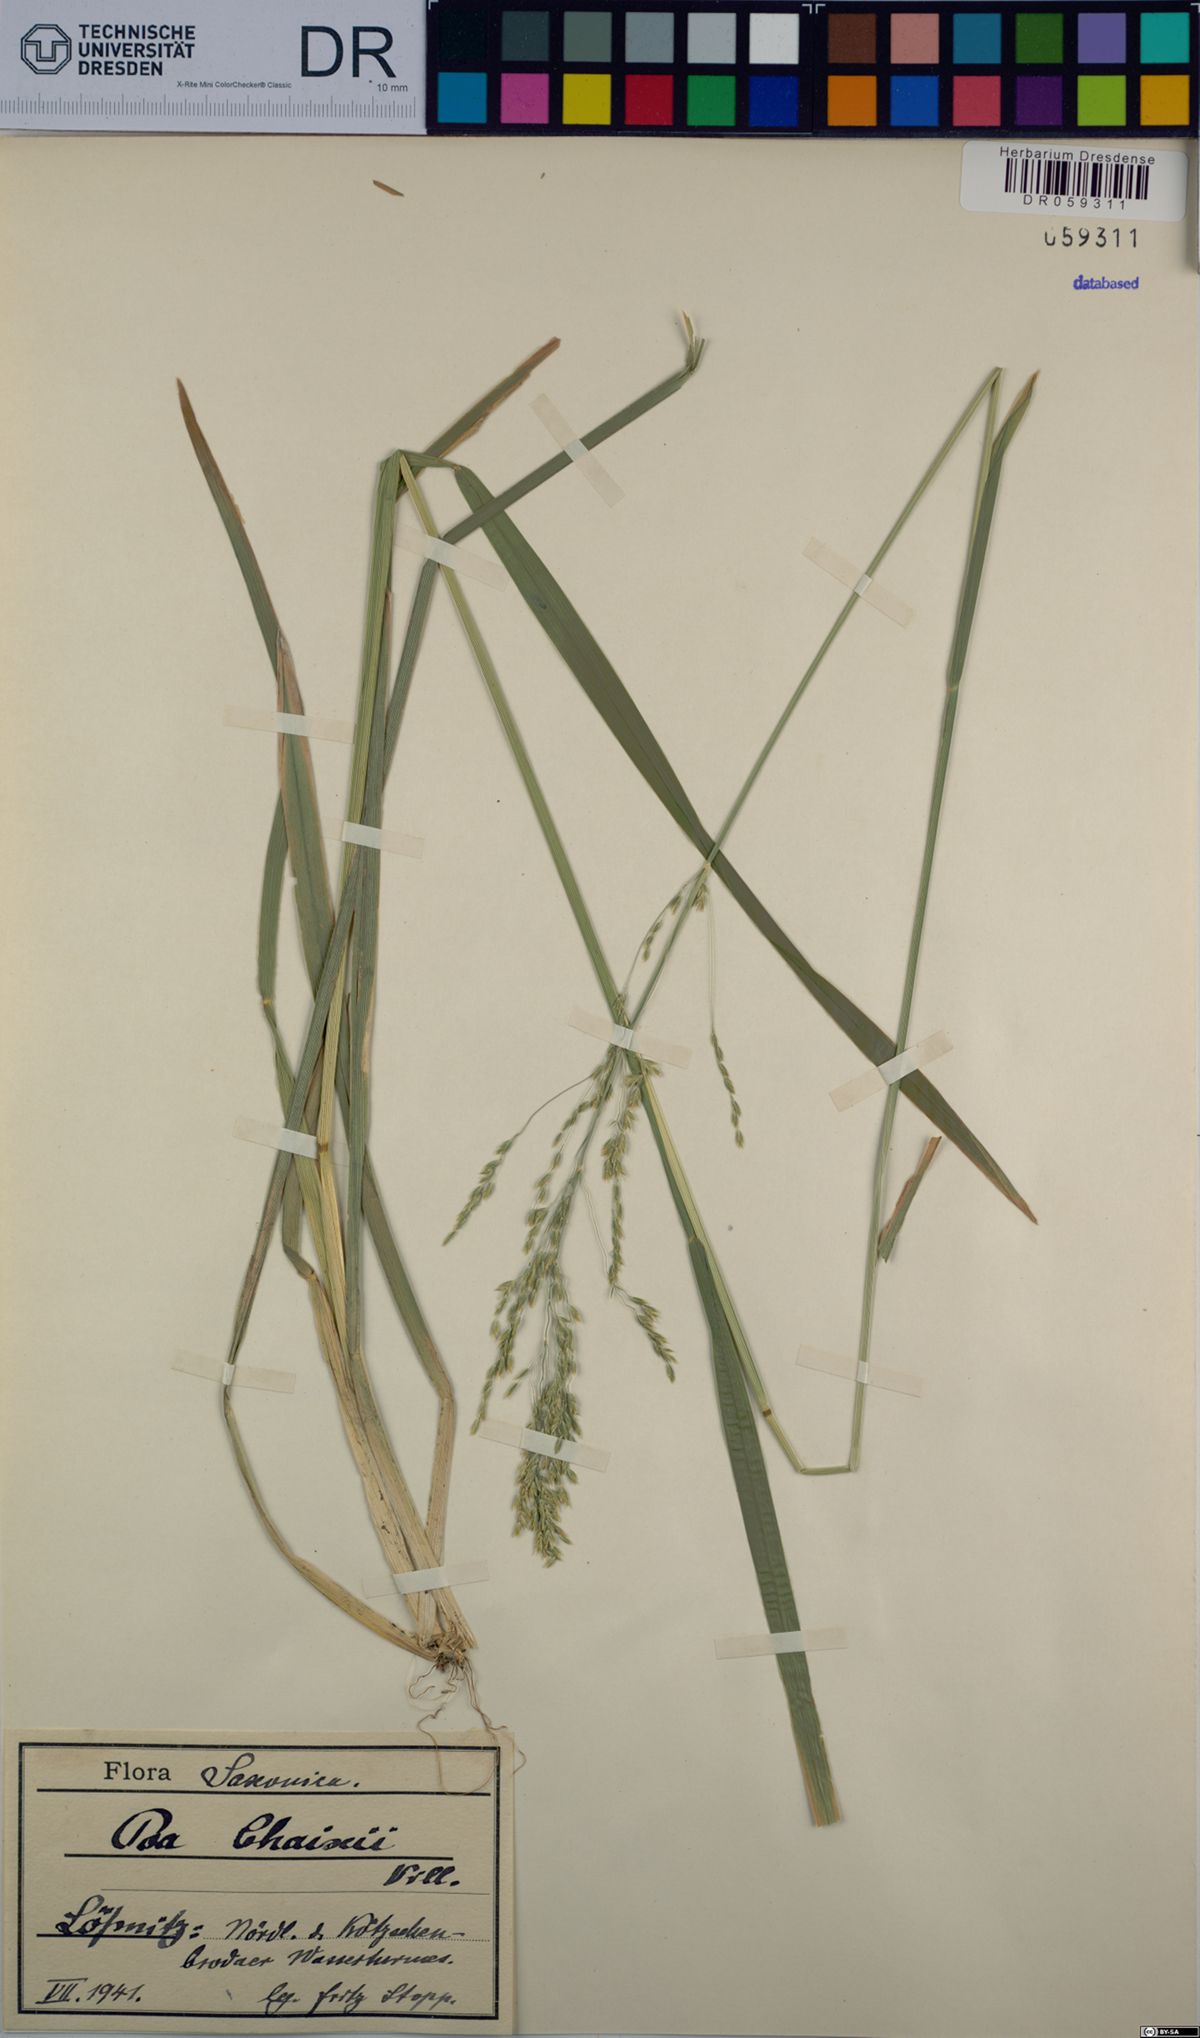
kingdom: Plantae
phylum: Tracheophyta
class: Liliopsida
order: Poales
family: Poaceae
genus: Poa
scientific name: Poa chaixii
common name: Broad-leaved meadow-grass
